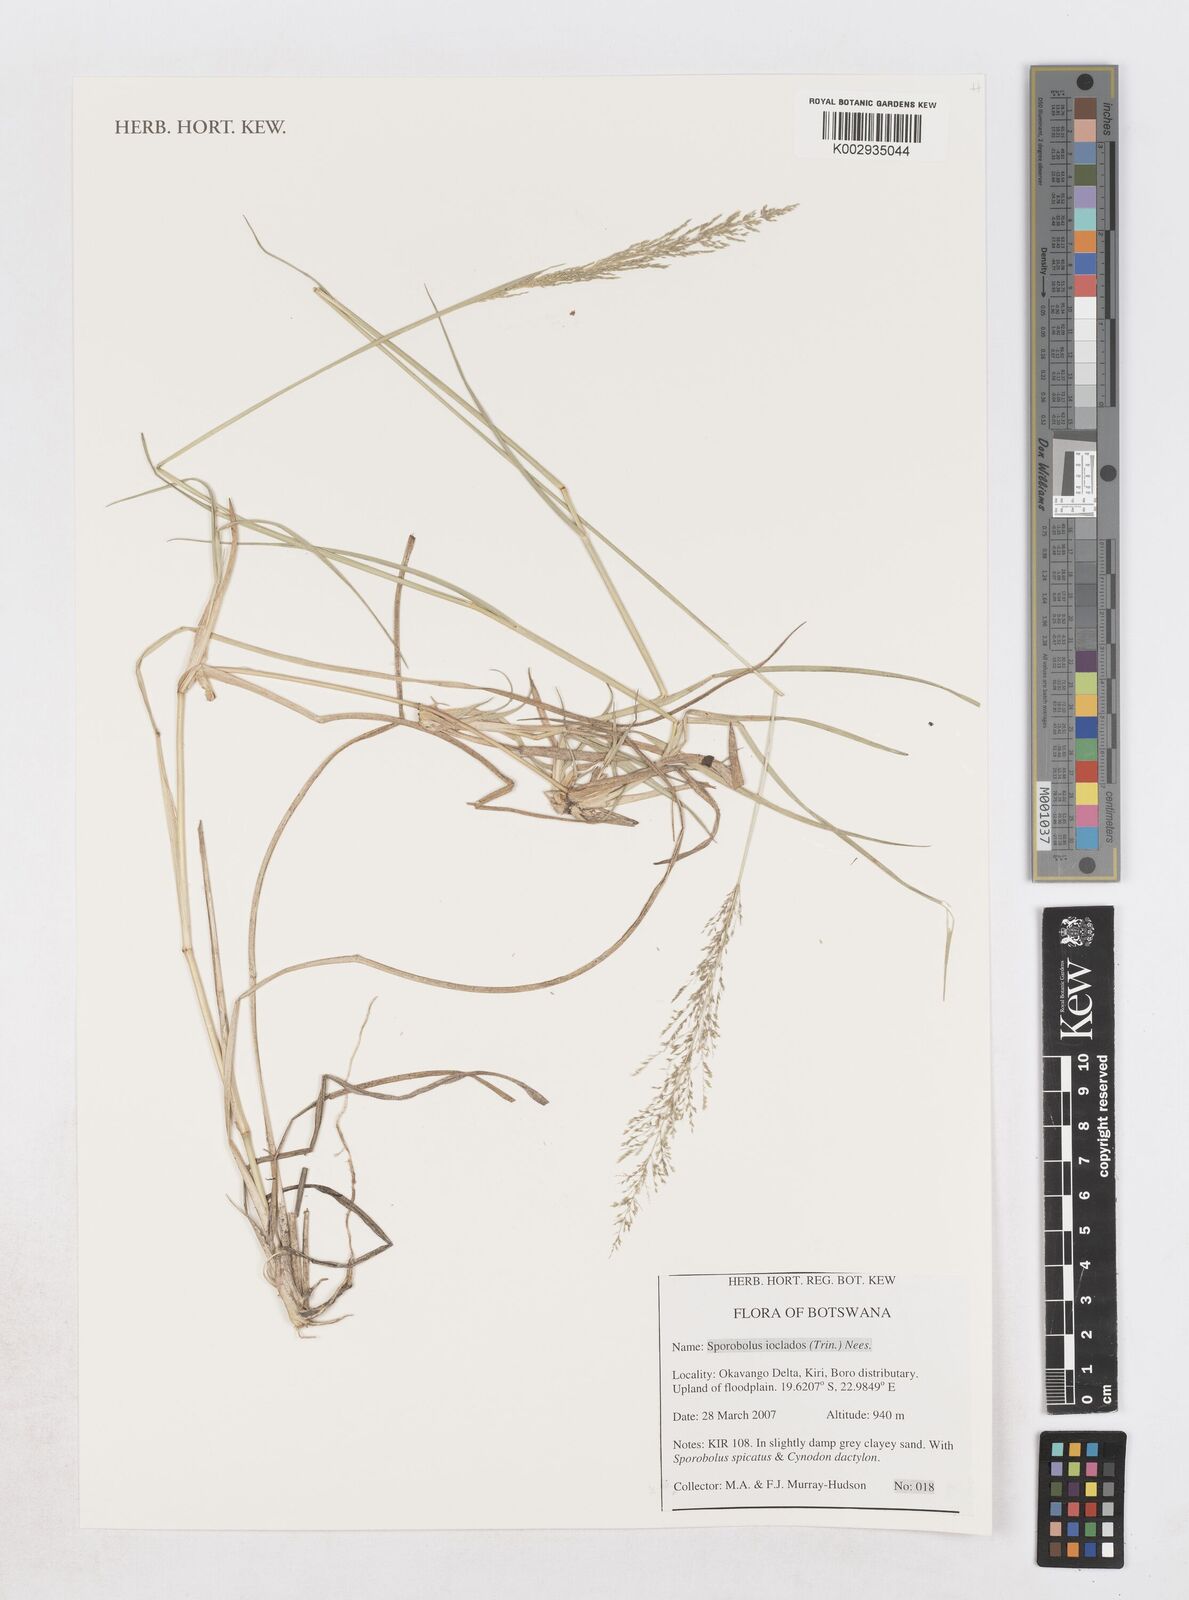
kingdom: Plantae
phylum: Tracheophyta
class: Liliopsida
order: Poales
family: Poaceae
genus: Sporobolus
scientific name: Sporobolus ioclados
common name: Pan dropseed
